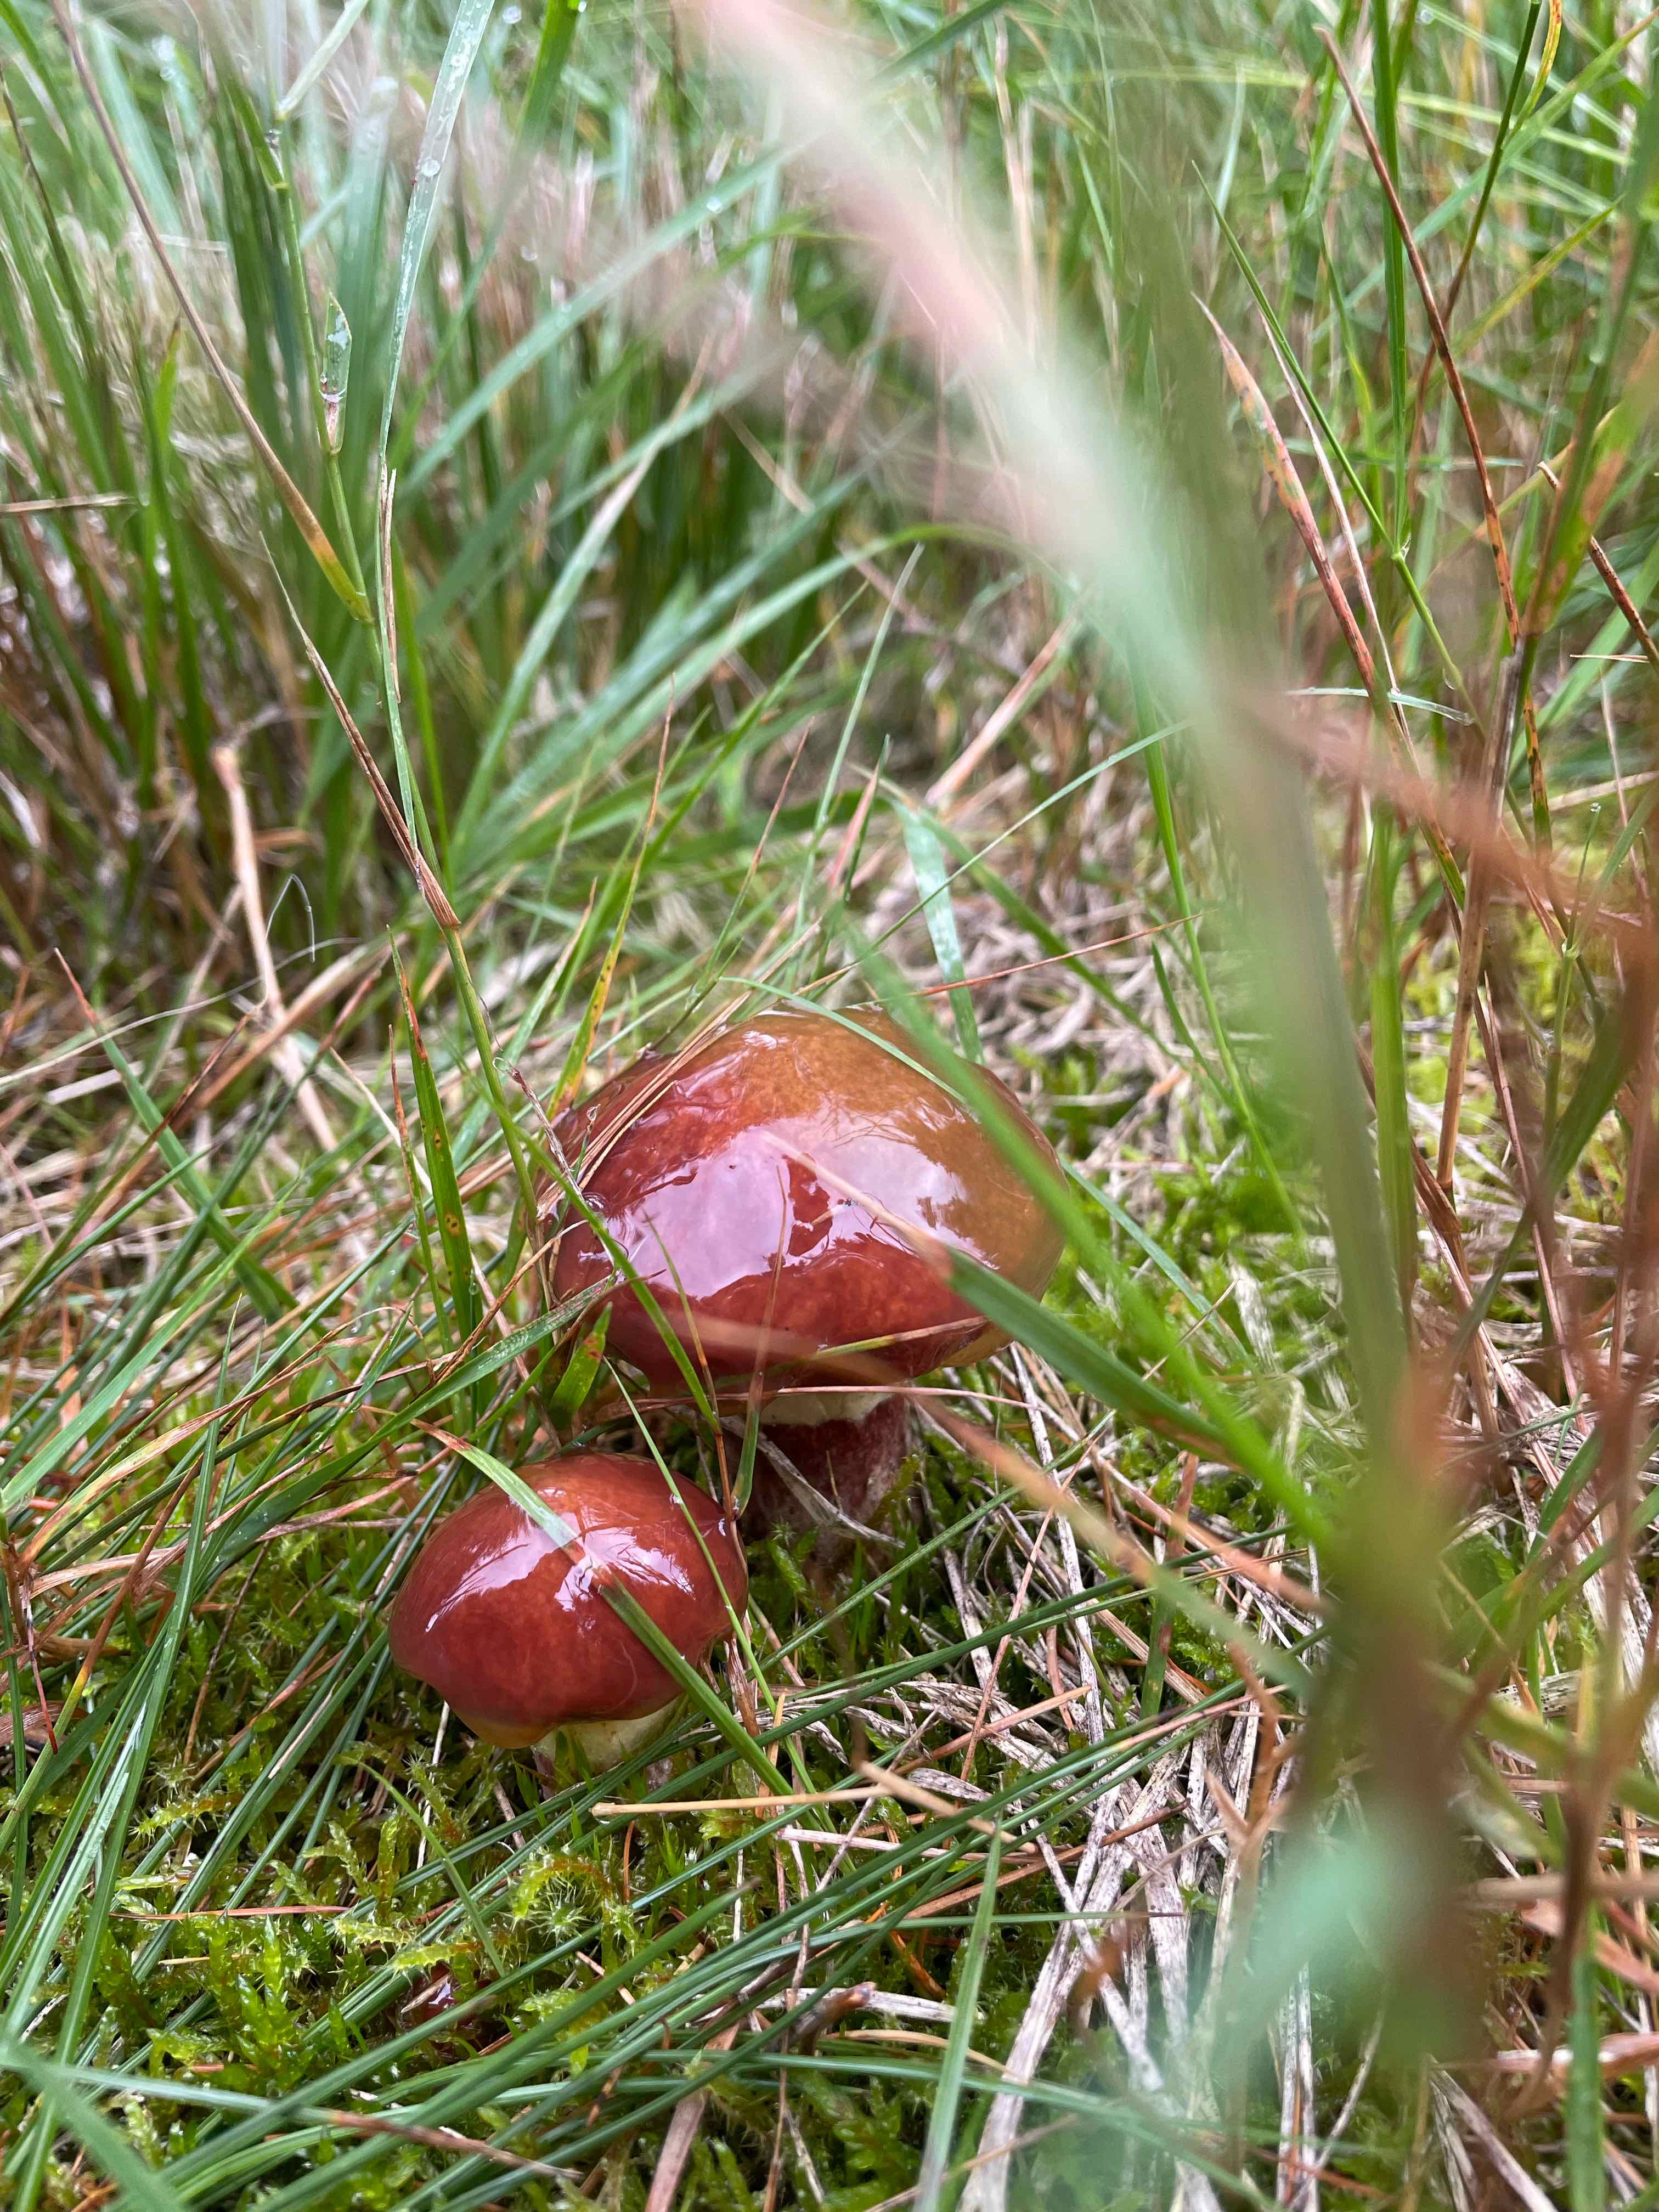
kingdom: Fungi
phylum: Basidiomycota
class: Agaricomycetes
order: Boletales
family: Suillaceae
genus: Suillus
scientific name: Suillus luteus
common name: brungul slimrørhat
